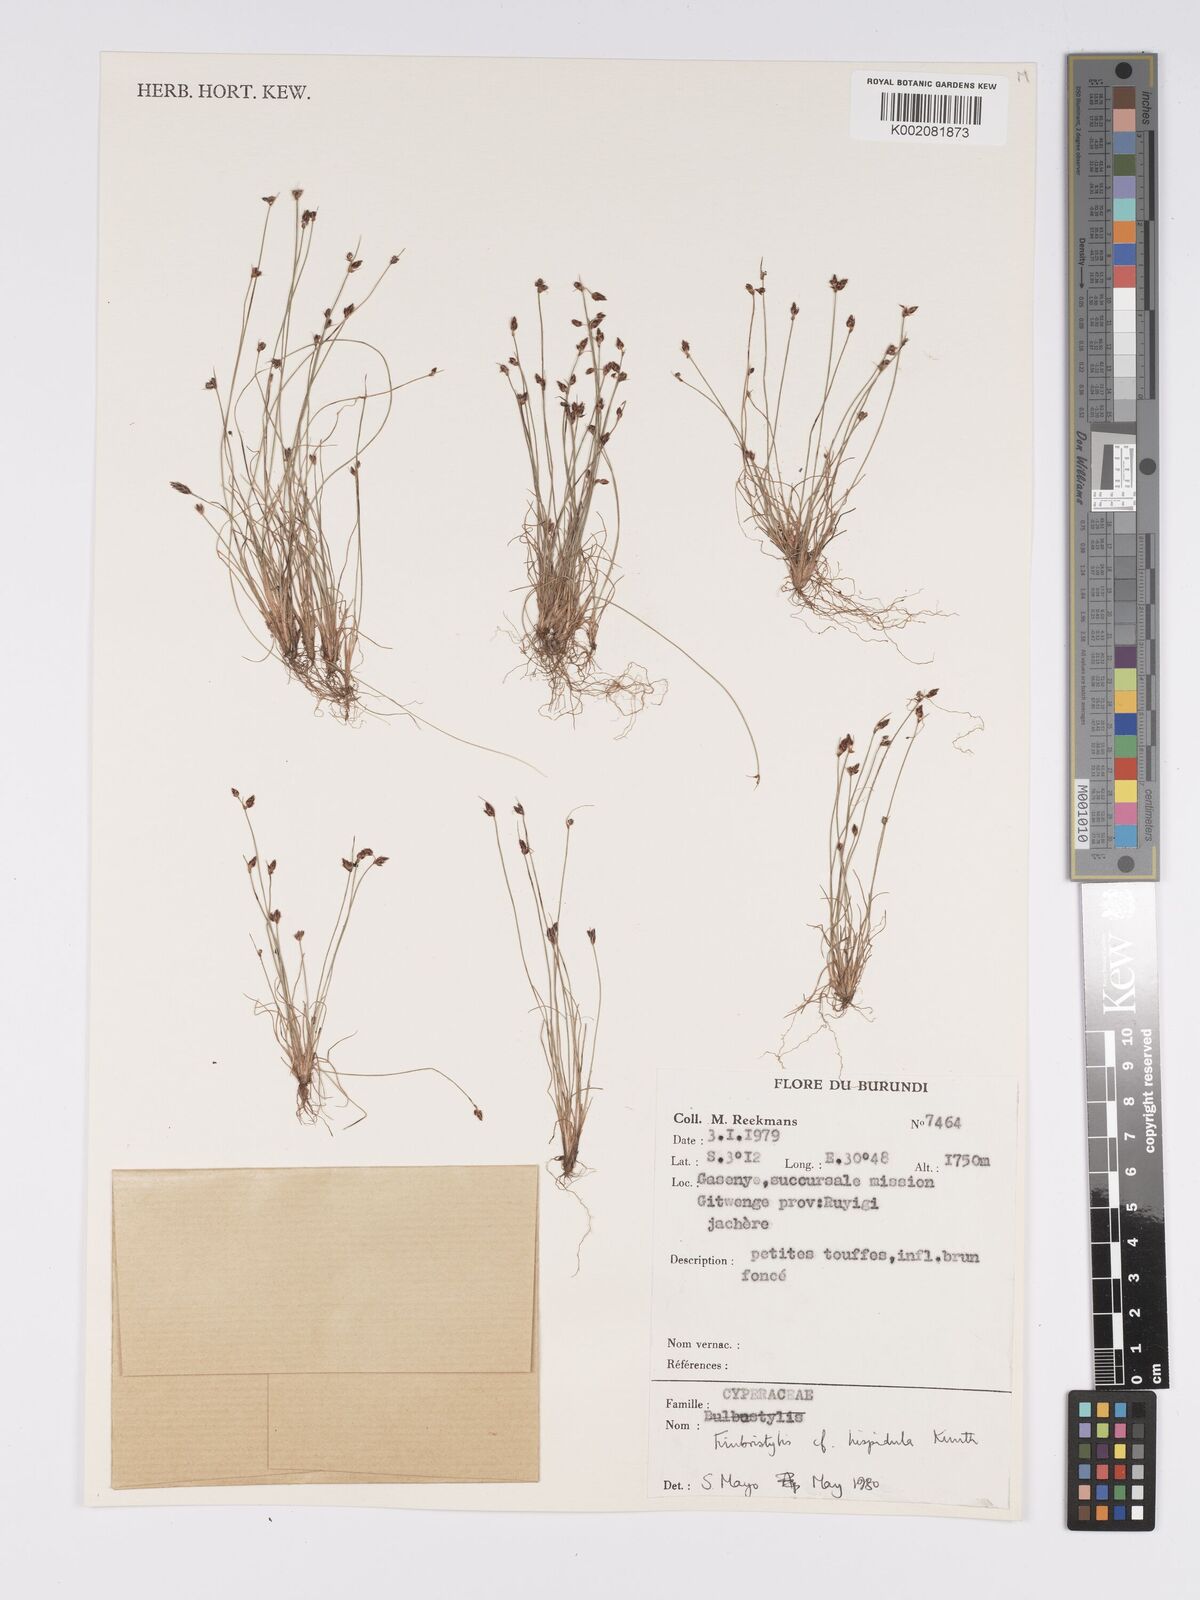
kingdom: Plantae
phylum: Tracheophyta
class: Liliopsida
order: Poales
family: Cyperaceae
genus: Bulbostylis
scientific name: Bulbostylis hispidula
